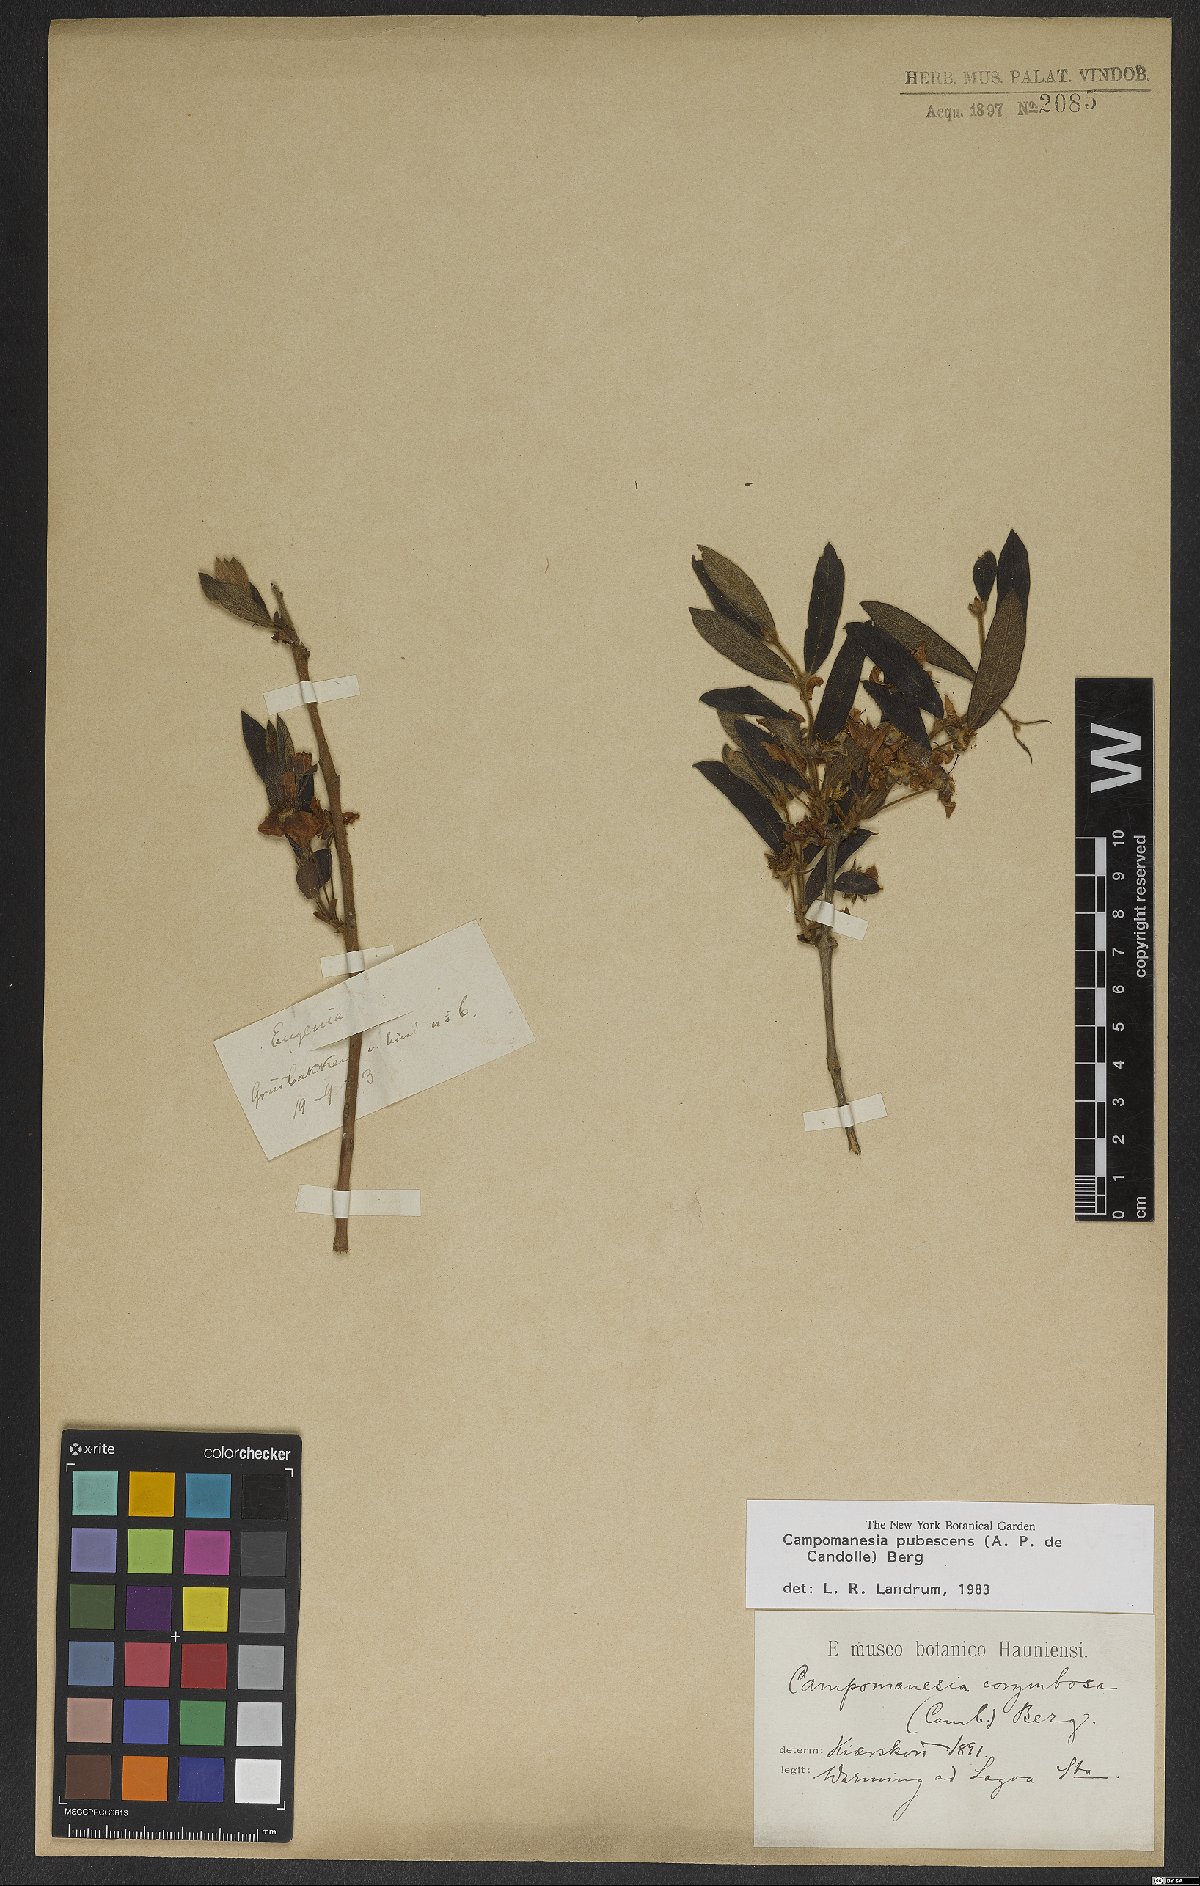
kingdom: Plantae
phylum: Tracheophyta
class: Magnoliopsida
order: Myrtales
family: Myrtaceae
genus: Campomanesia
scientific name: Campomanesia pubescens
